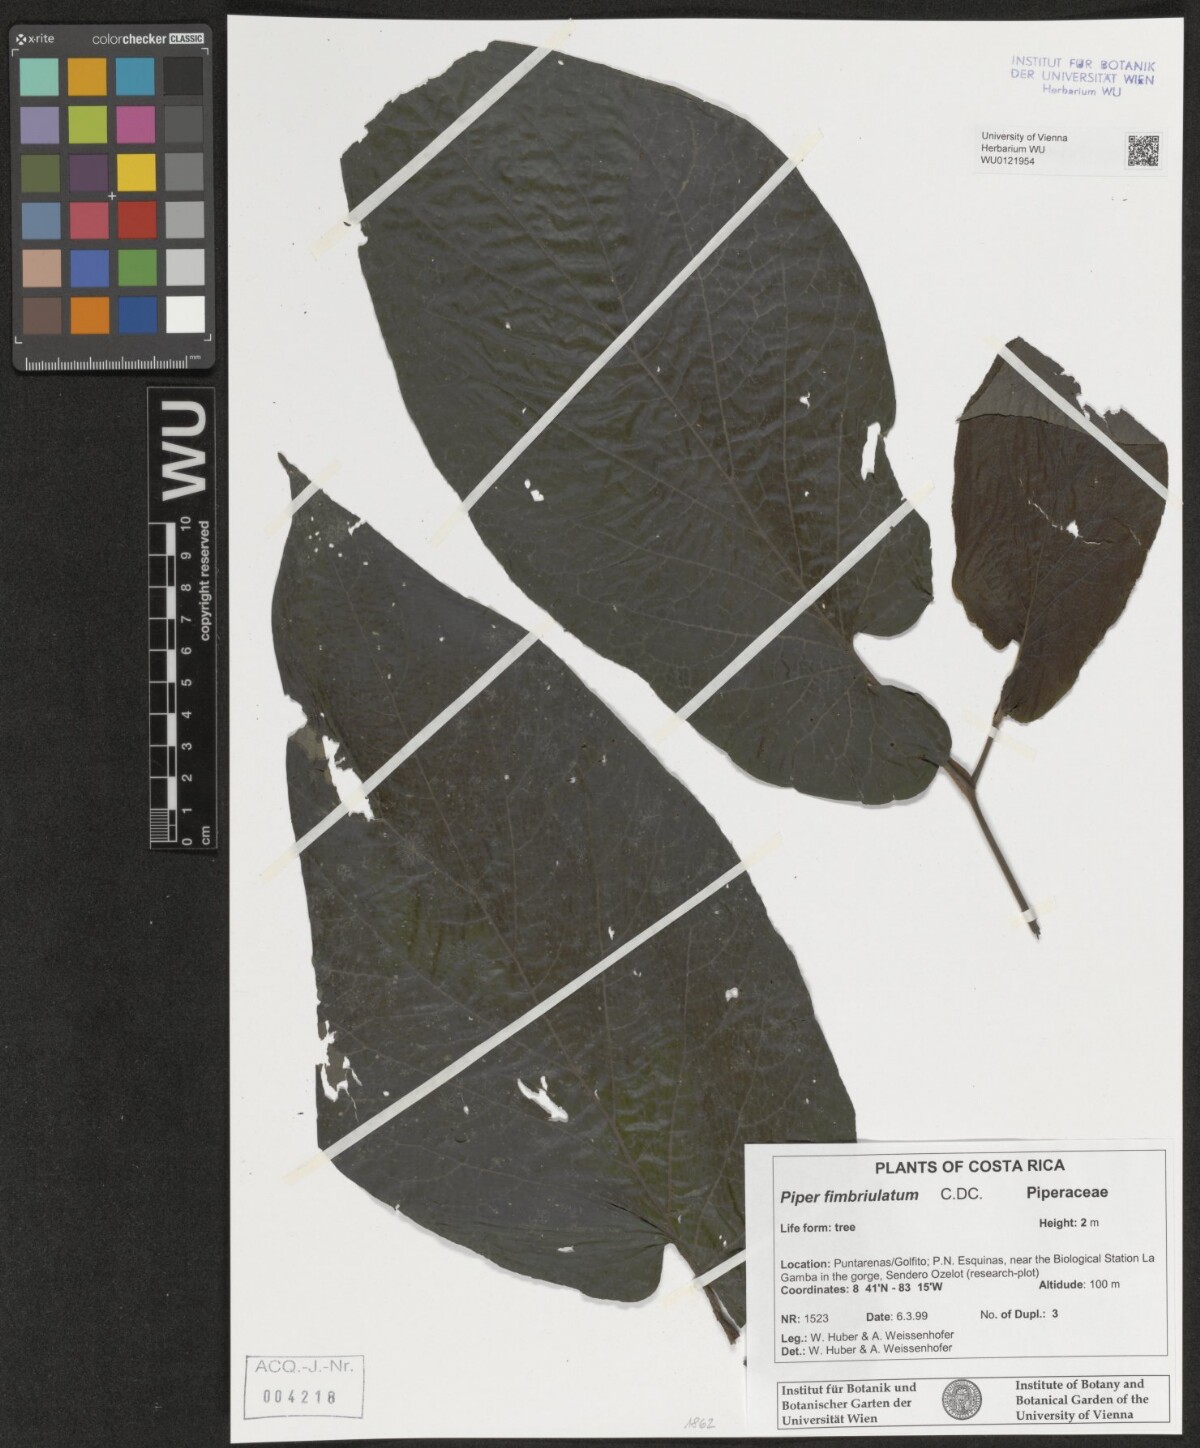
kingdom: Plantae
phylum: Tracheophyta
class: Magnoliopsida
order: Piperales
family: Piperaceae
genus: Piper
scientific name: Piper fimbriulatum
